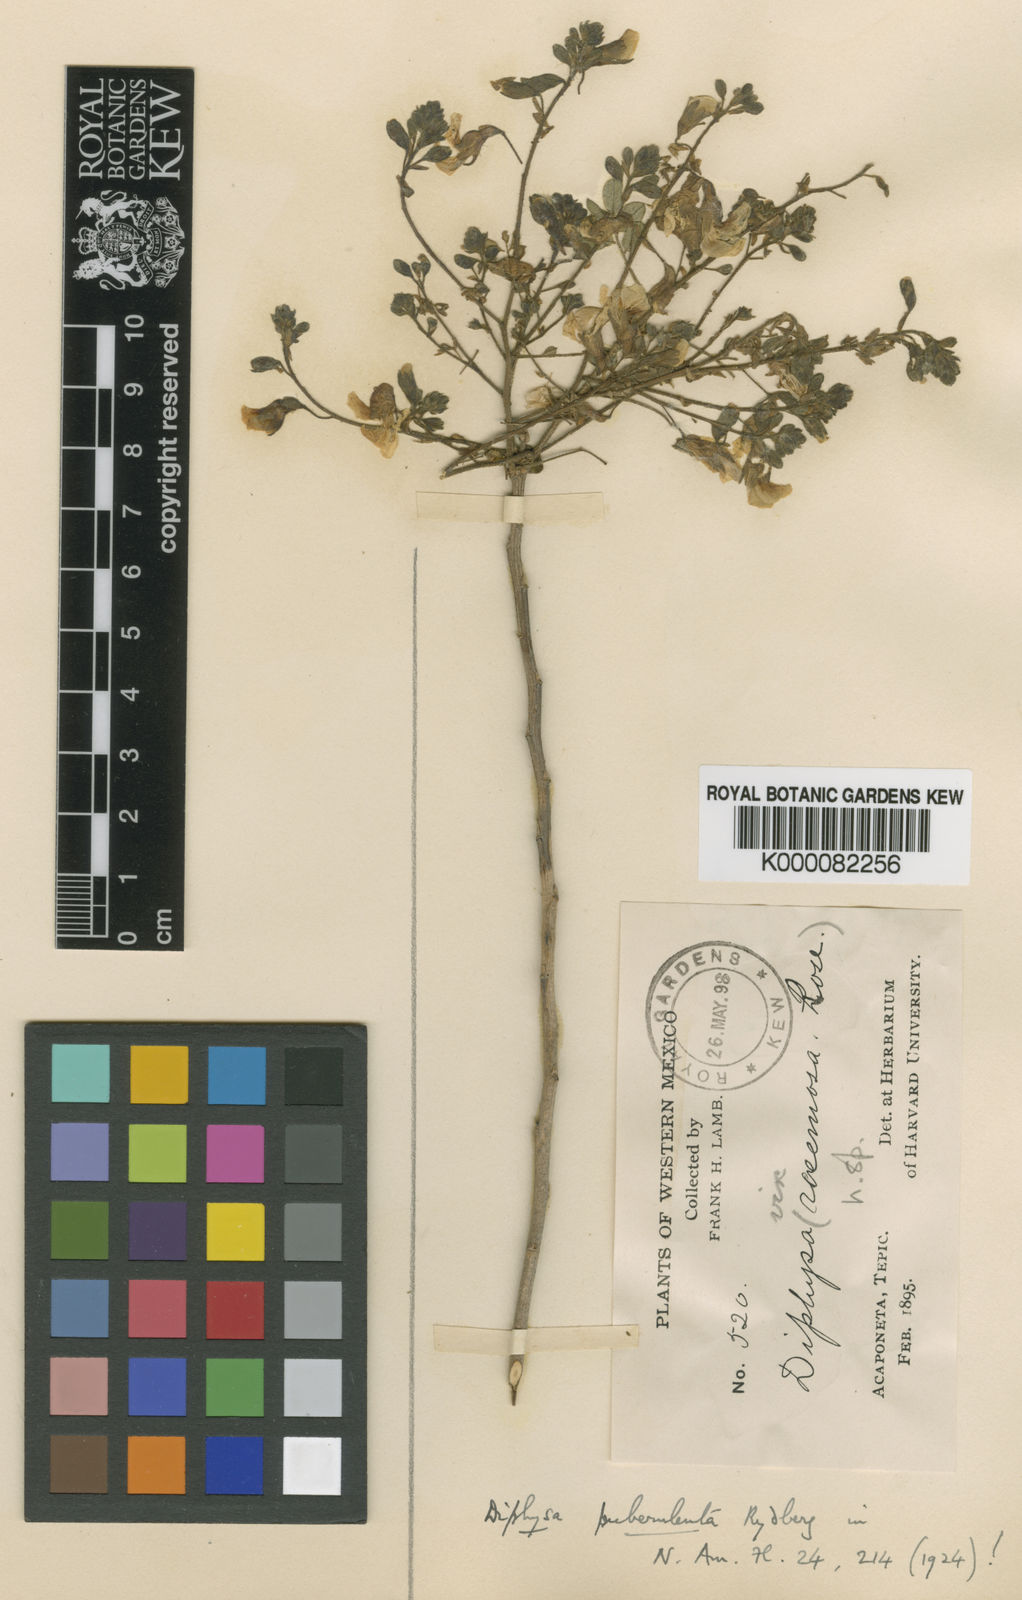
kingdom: Plantae
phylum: Tracheophyta
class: Magnoliopsida
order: Fabales
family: Fabaceae
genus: Diphysa
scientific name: Diphysa puberulenta
